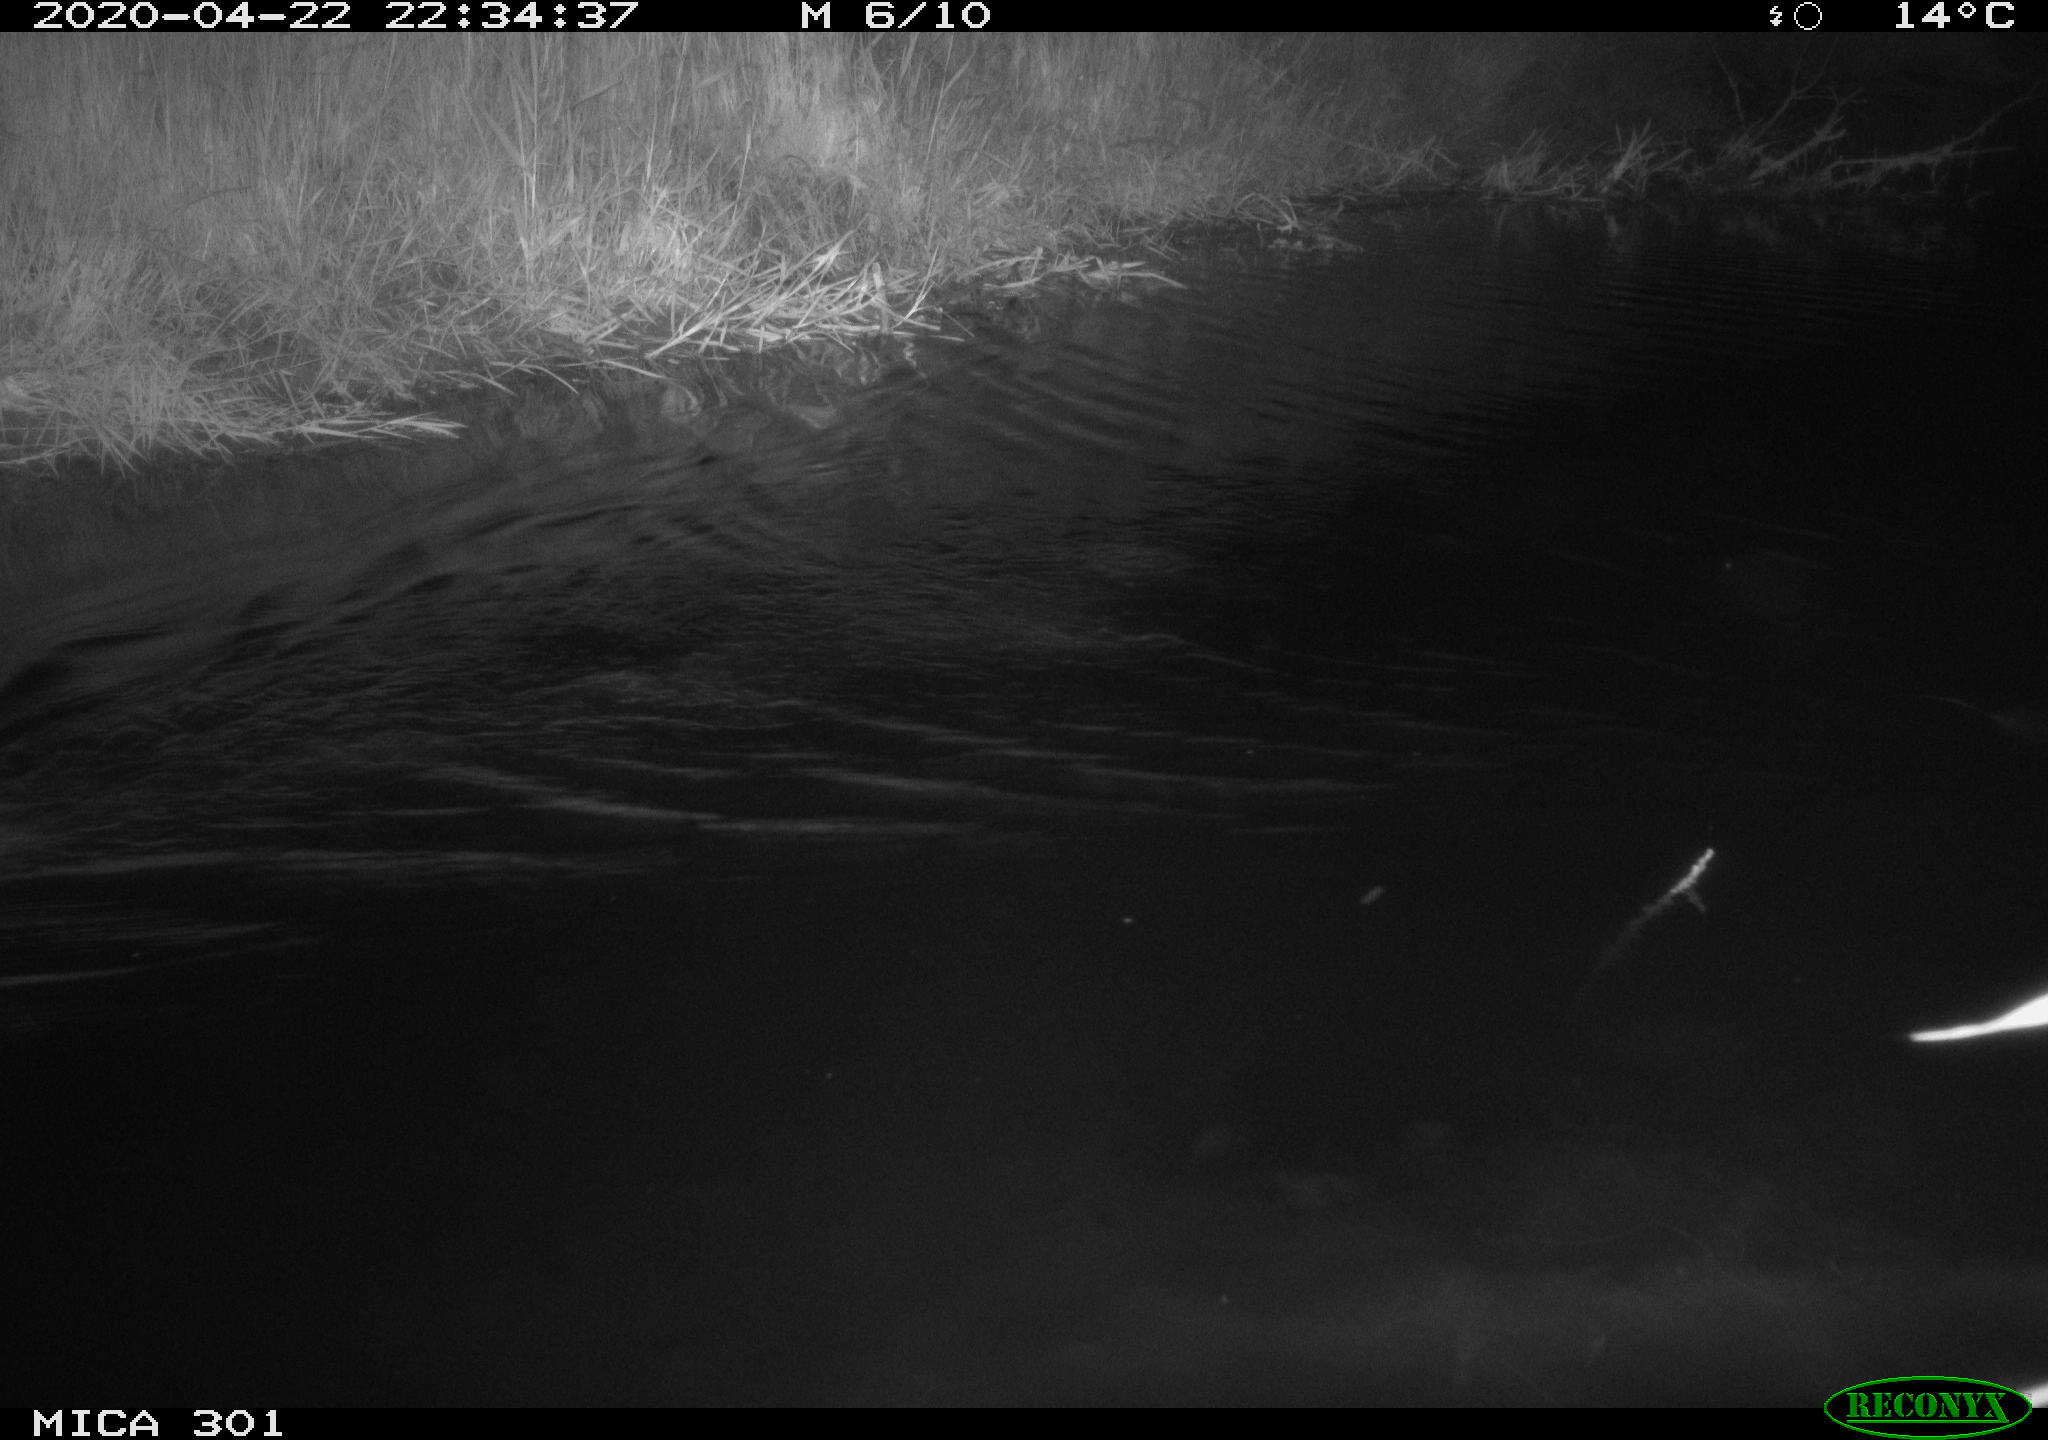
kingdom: Animalia
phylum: Chordata
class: Mammalia
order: Rodentia
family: Castoridae
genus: Castor
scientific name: Castor fiber
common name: Eurasian beaver
